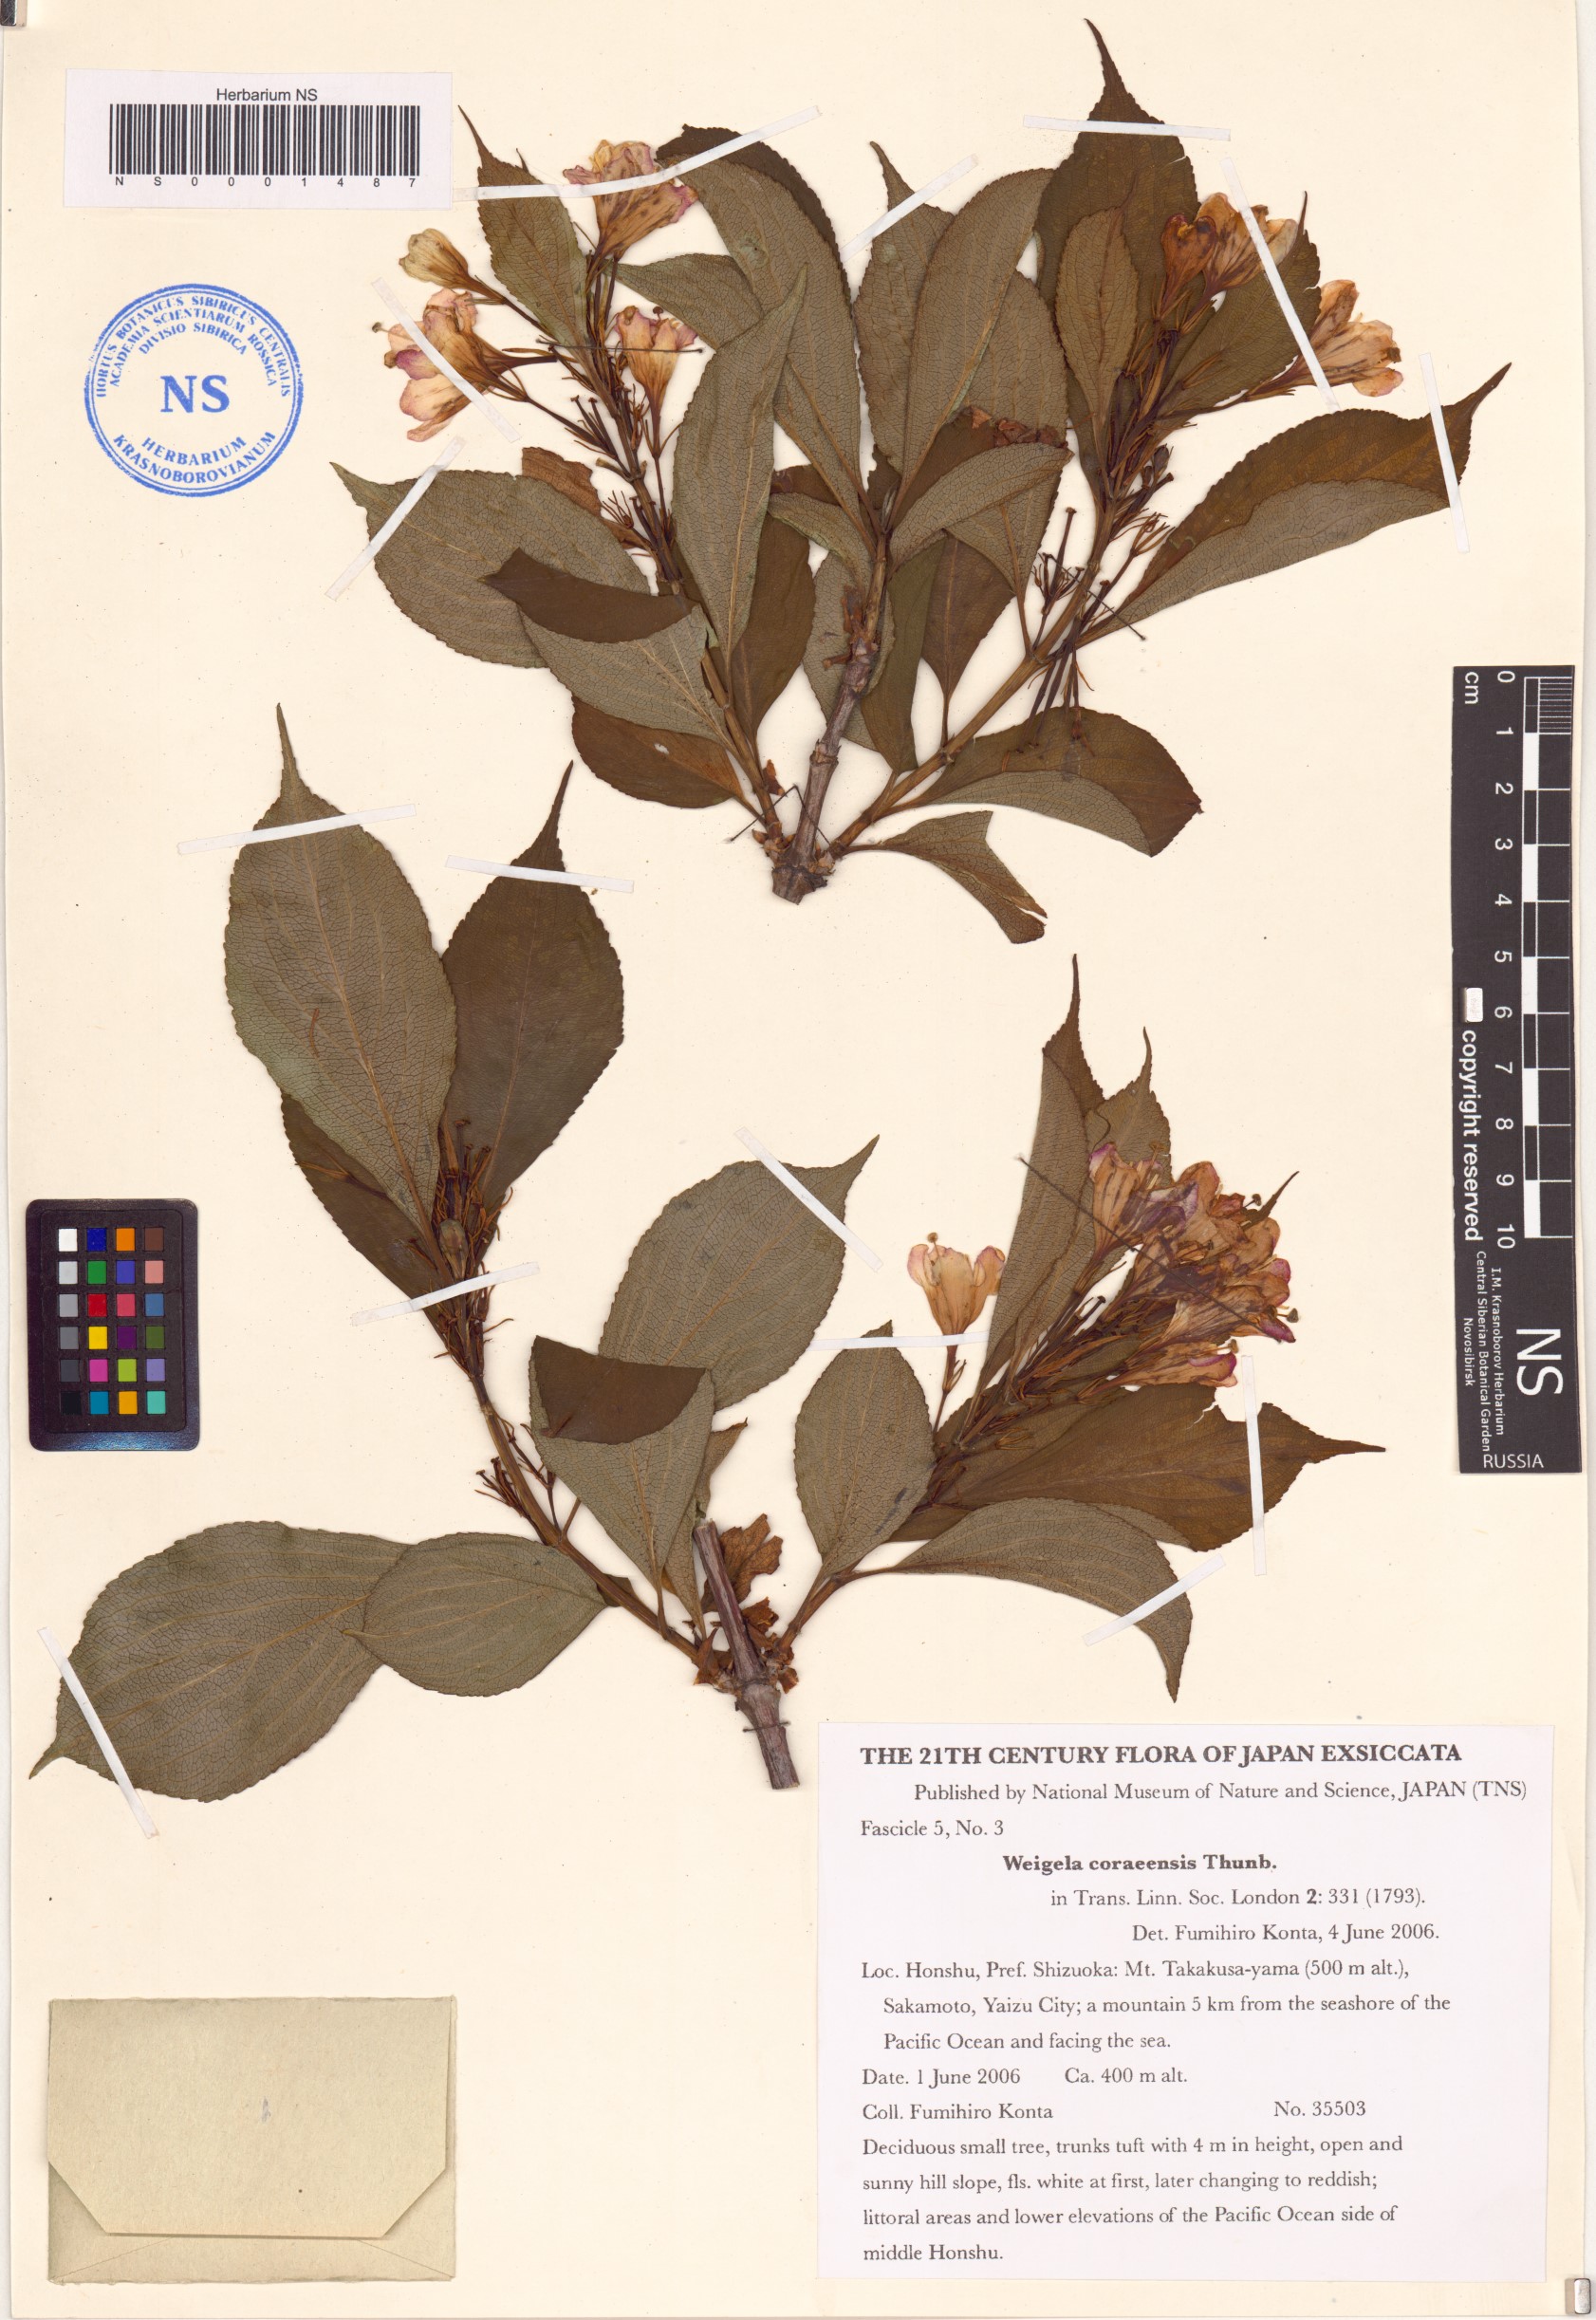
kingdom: Plantae
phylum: Tracheophyta
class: Magnoliopsida
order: Dipsacales
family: Caprifoliaceae
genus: Weigela
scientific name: Weigela coraeensis
